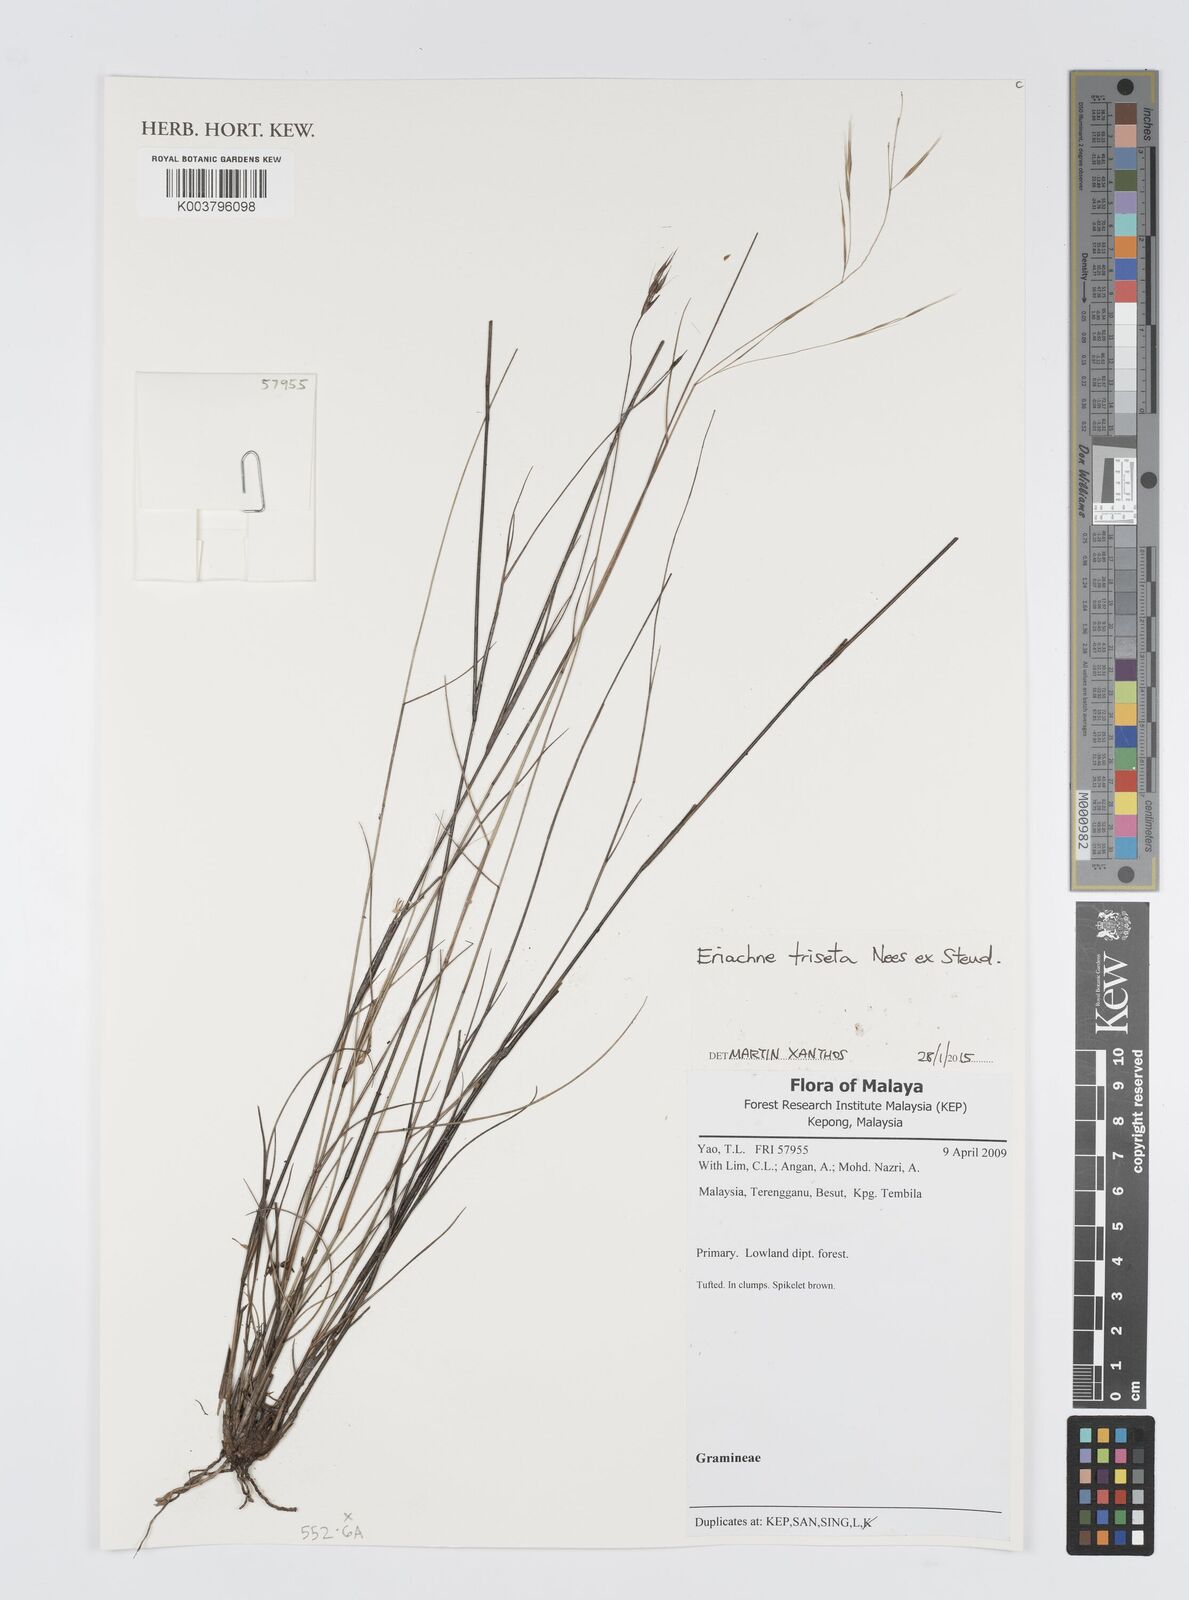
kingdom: Plantae
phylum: Tracheophyta
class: Liliopsida
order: Poales
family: Poaceae
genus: Digitaria
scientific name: Digitaria spec
